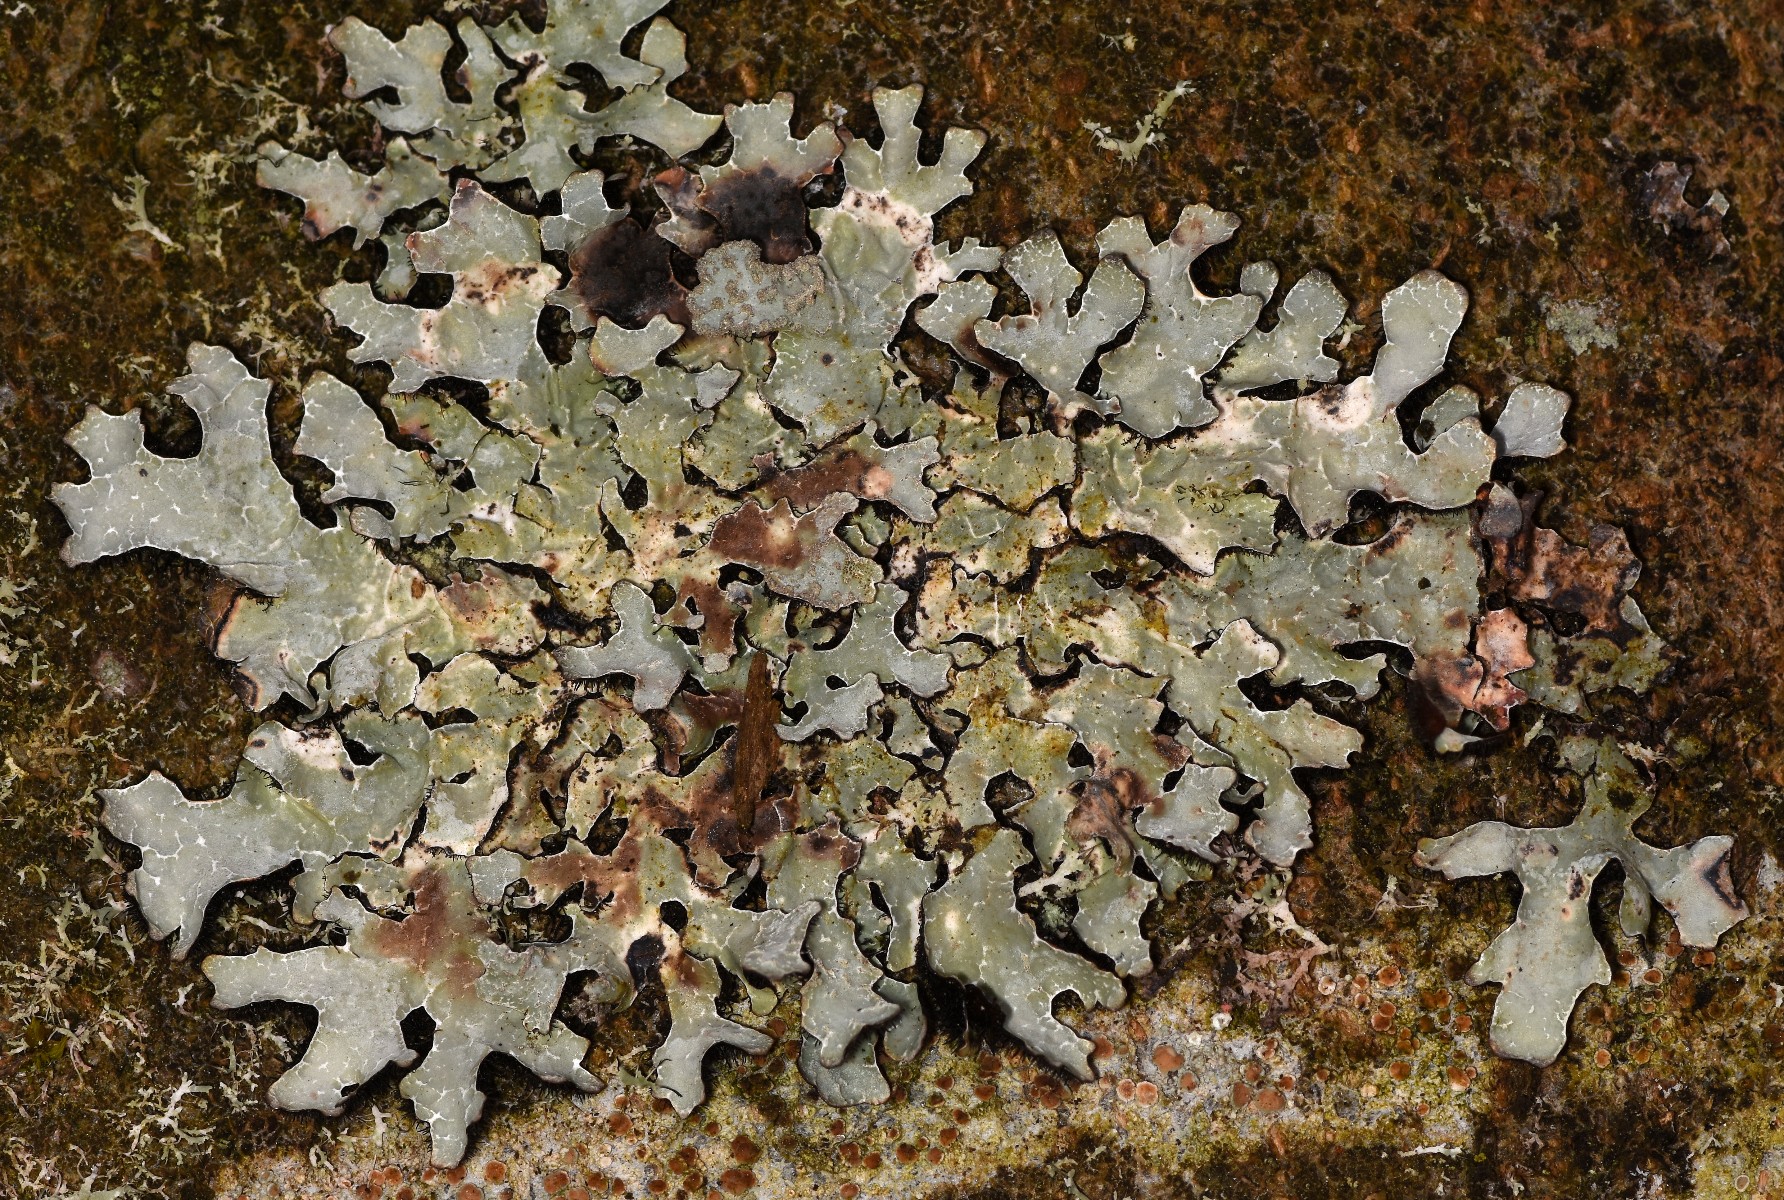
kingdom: Fungi
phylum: Ascomycota
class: Lecanoromycetes
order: Lecanorales
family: Parmeliaceae
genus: Parmelia
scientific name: Parmelia sulcata
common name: rynket skållav
